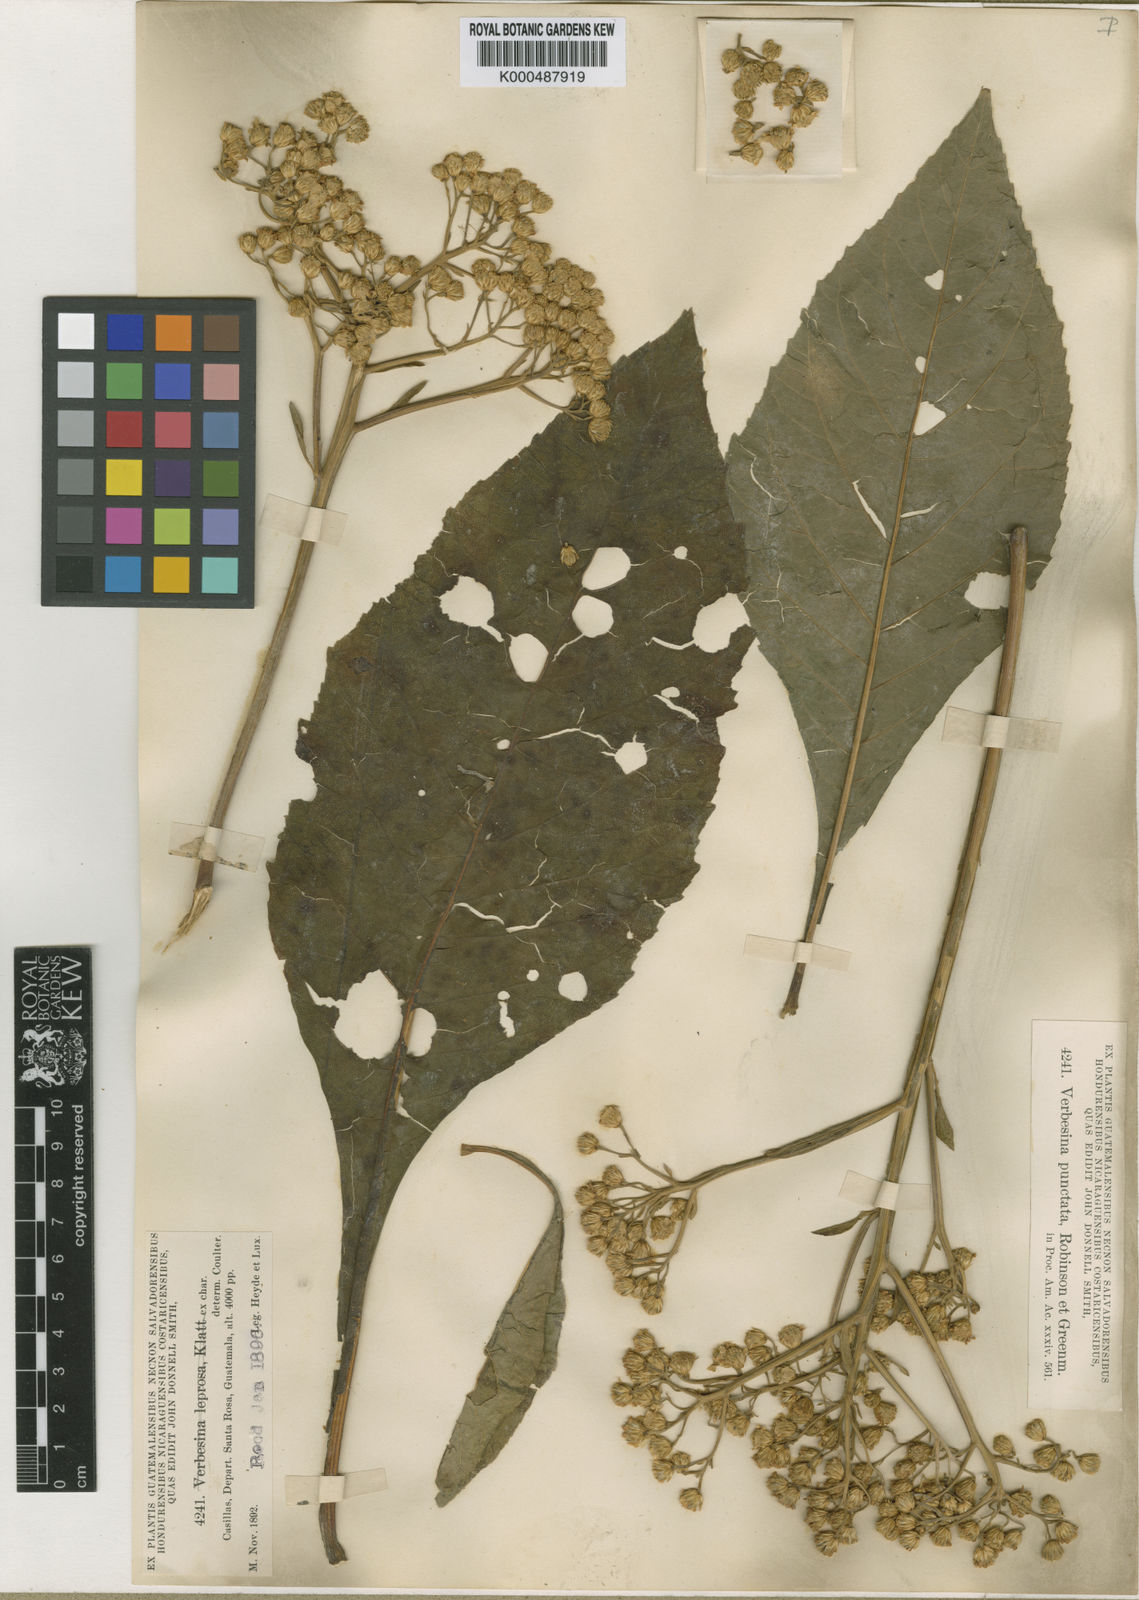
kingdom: Plantae
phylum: Tracheophyta
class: Magnoliopsida
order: Asterales
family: Asteraceae
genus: Verbesina
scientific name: Verbesina pallens
